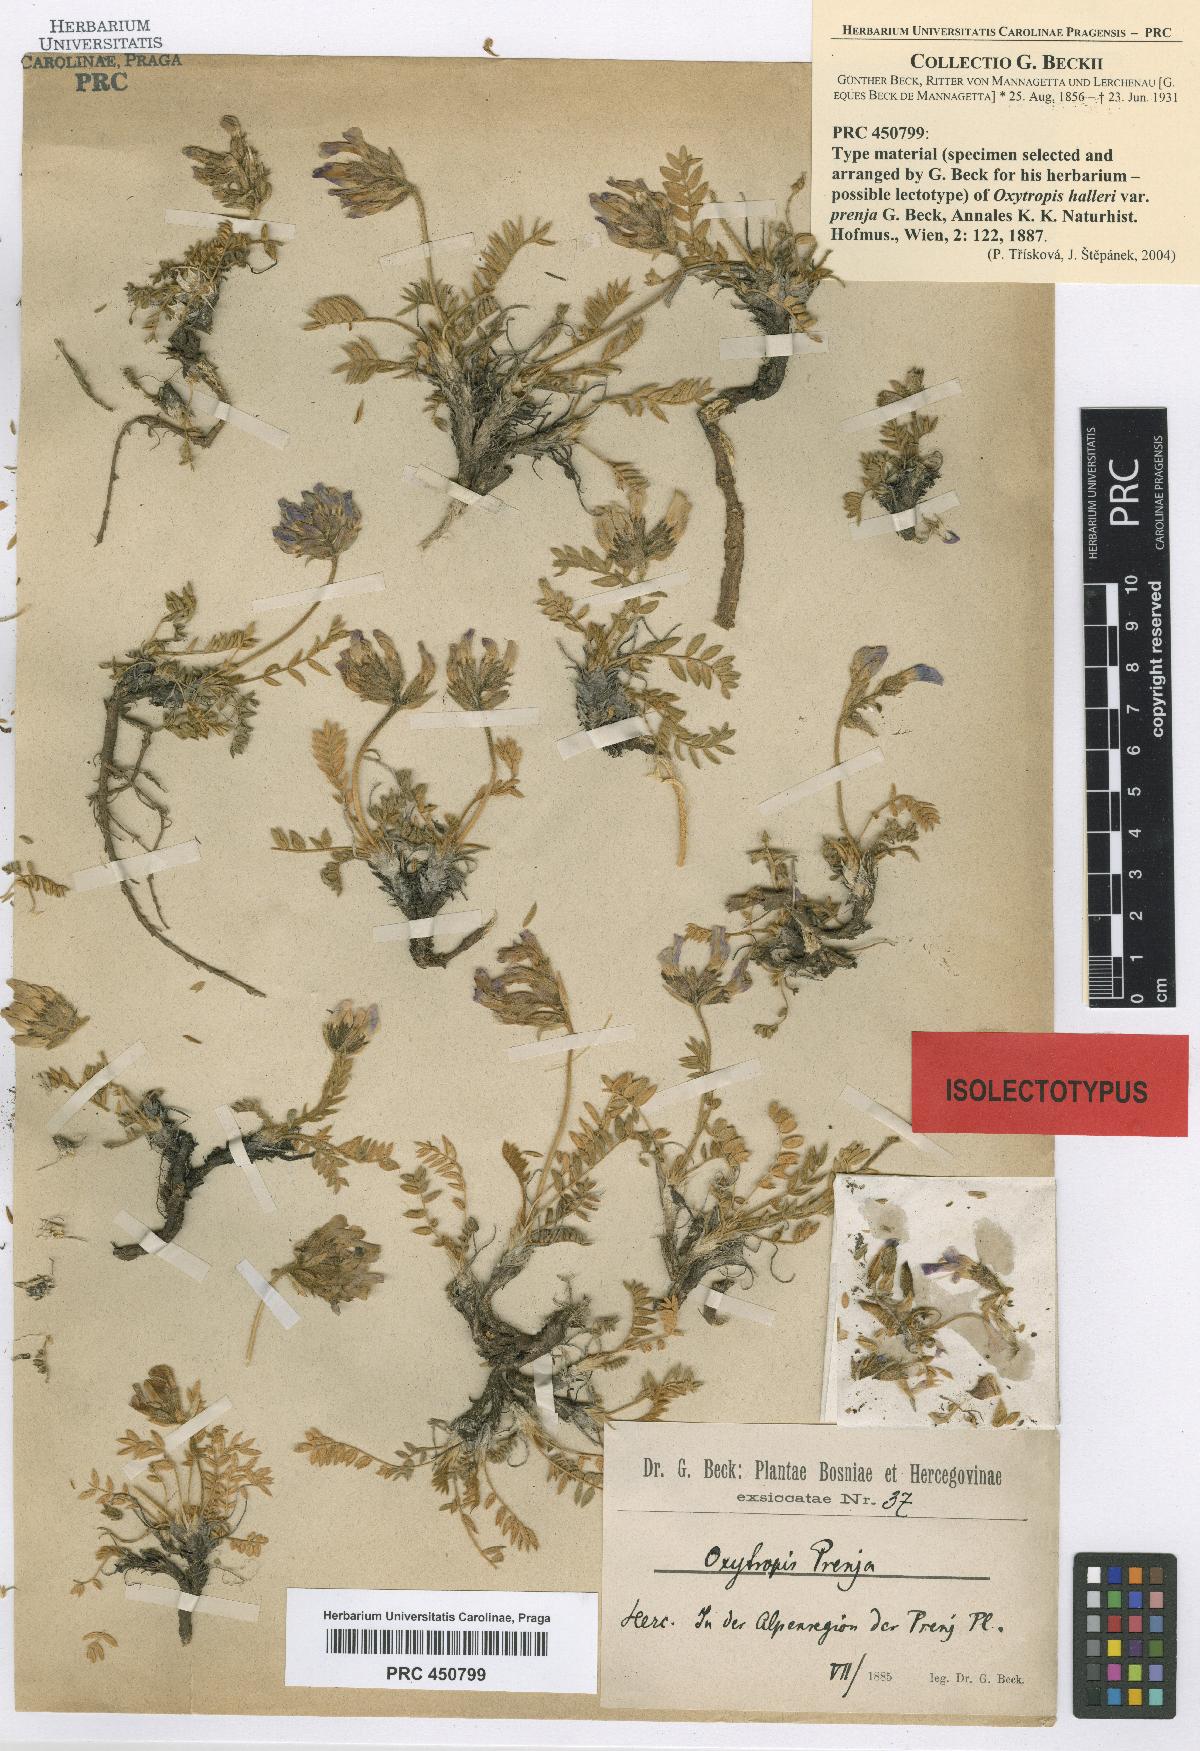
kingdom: Plantae
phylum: Tracheophyta
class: Magnoliopsida
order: Fabales
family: Fabaceae
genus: Oxytropis
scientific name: Oxytropis prenja
